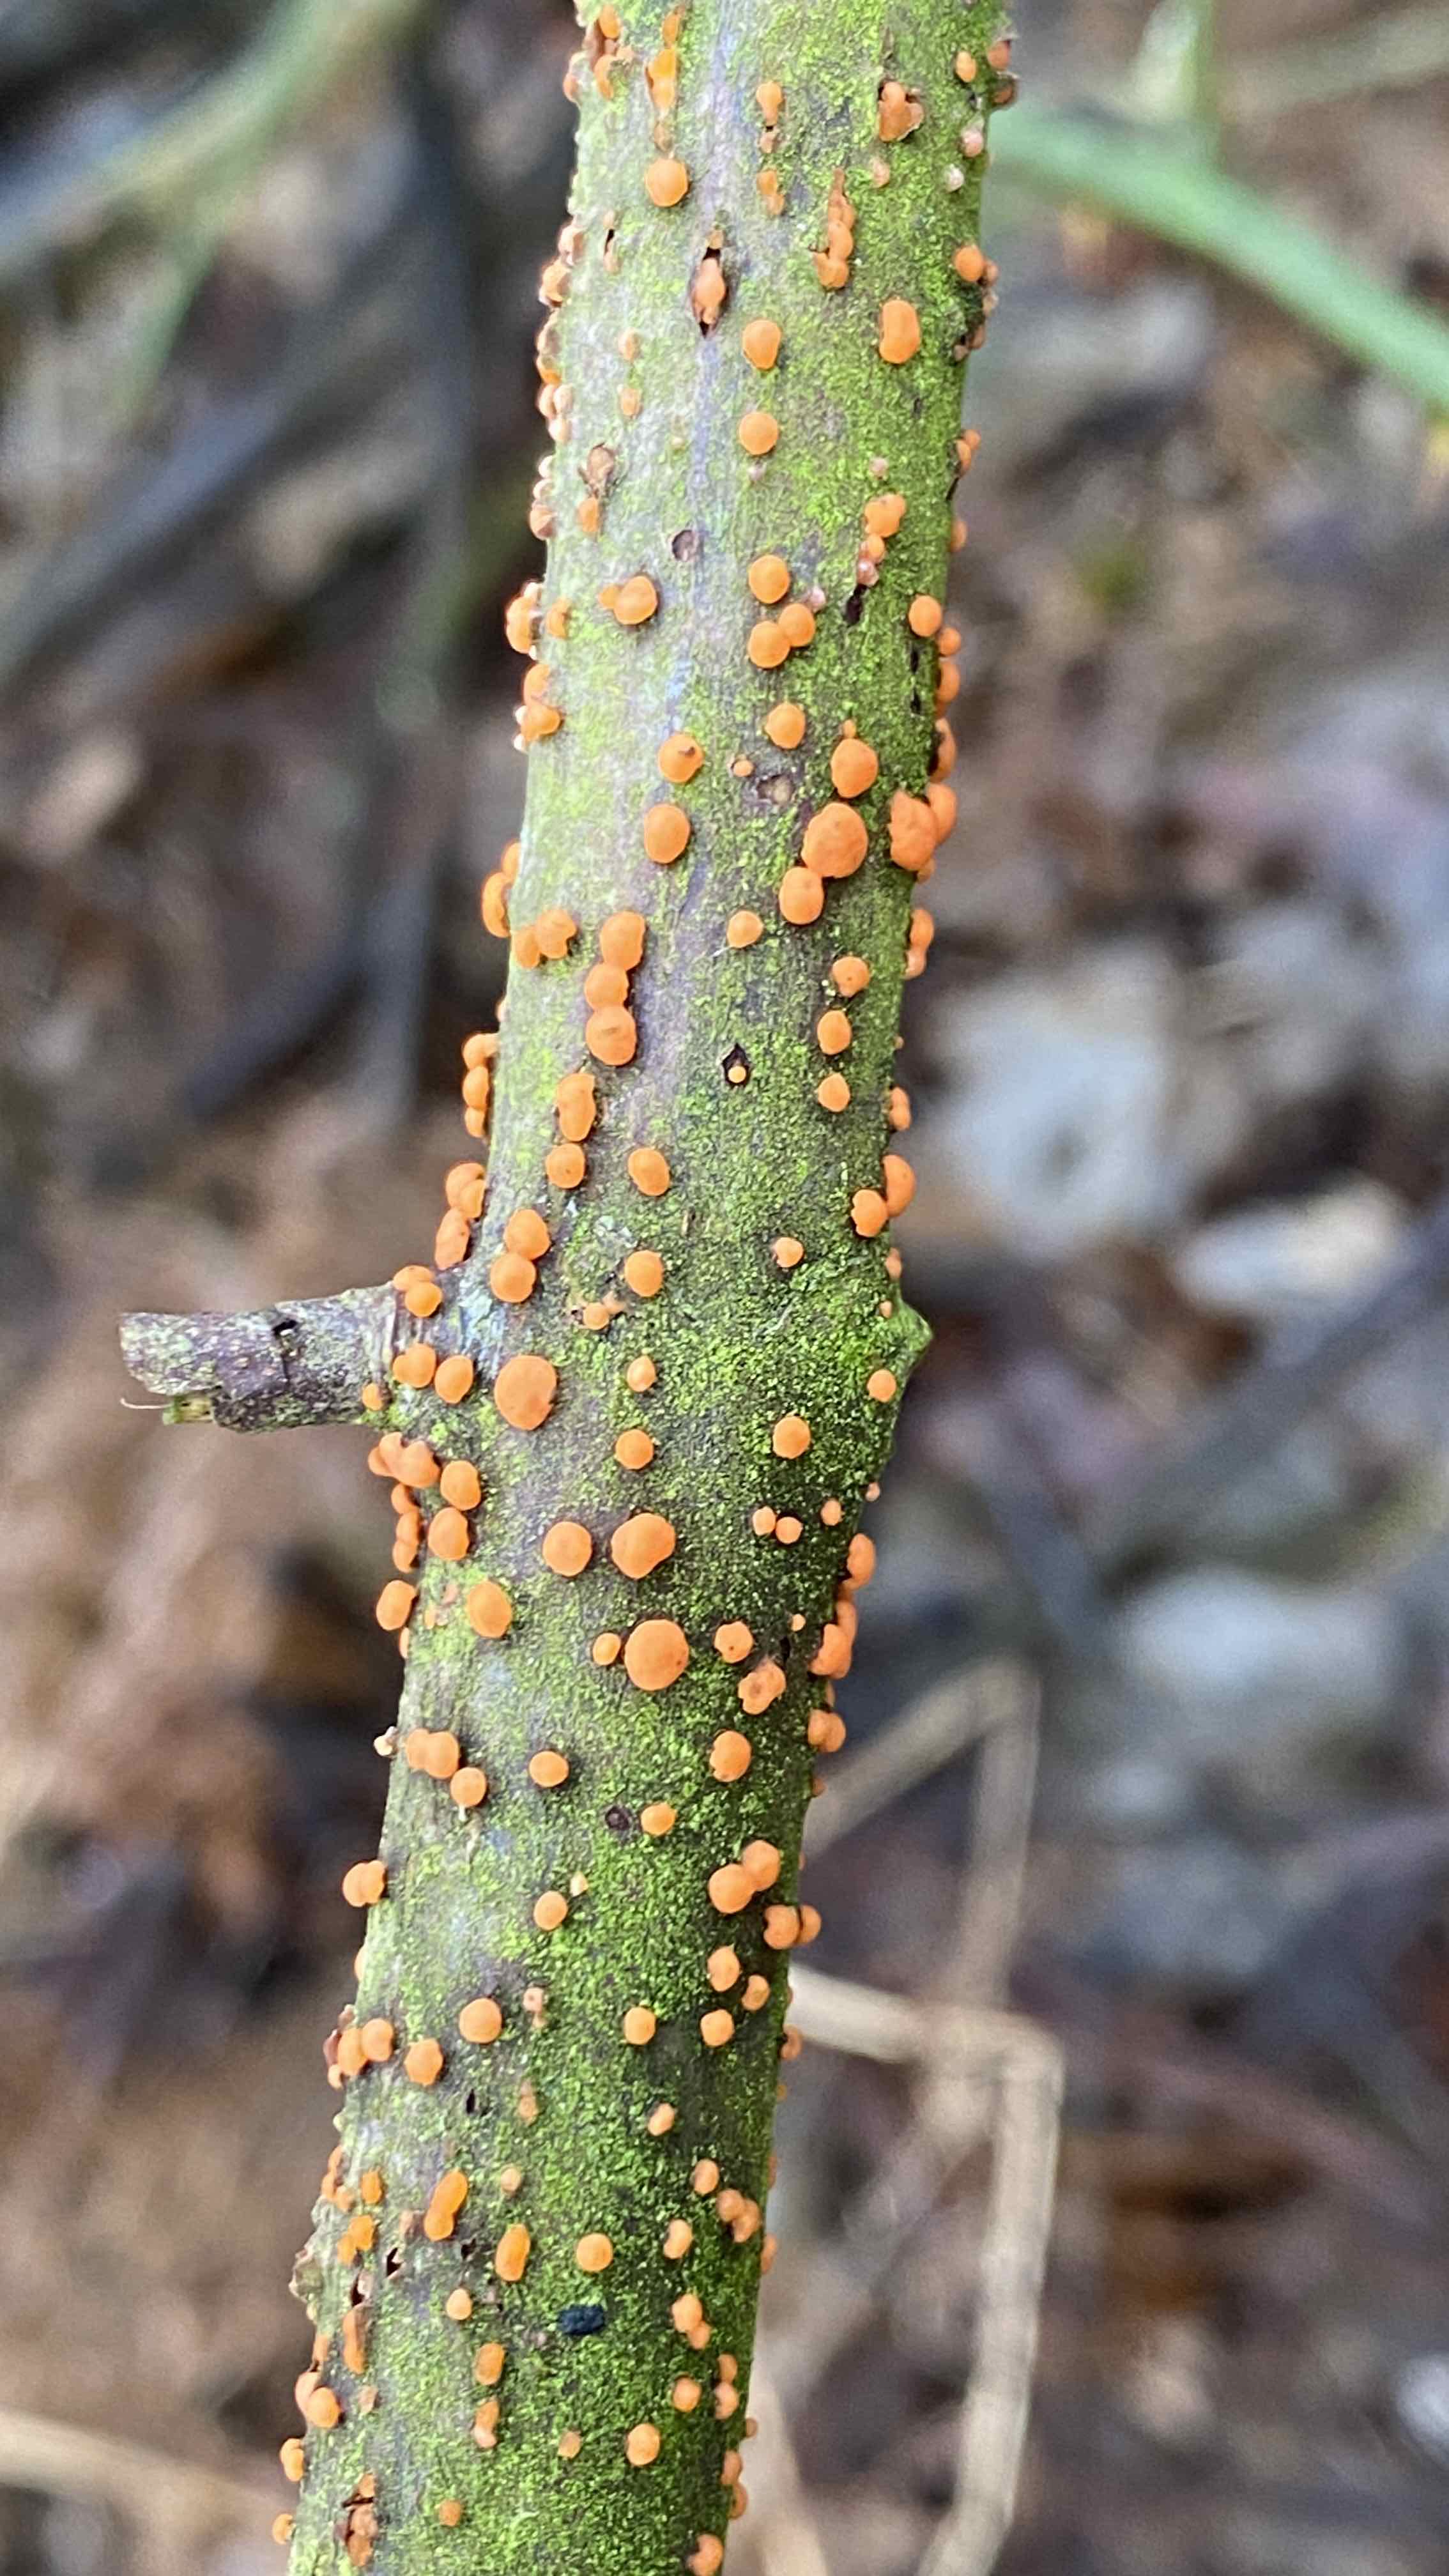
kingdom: Fungi
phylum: Ascomycota
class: Sordariomycetes
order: Hypocreales
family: Nectriaceae
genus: Nectria
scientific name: Nectria cinnabarina
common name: almindelig cinnobersvamp
